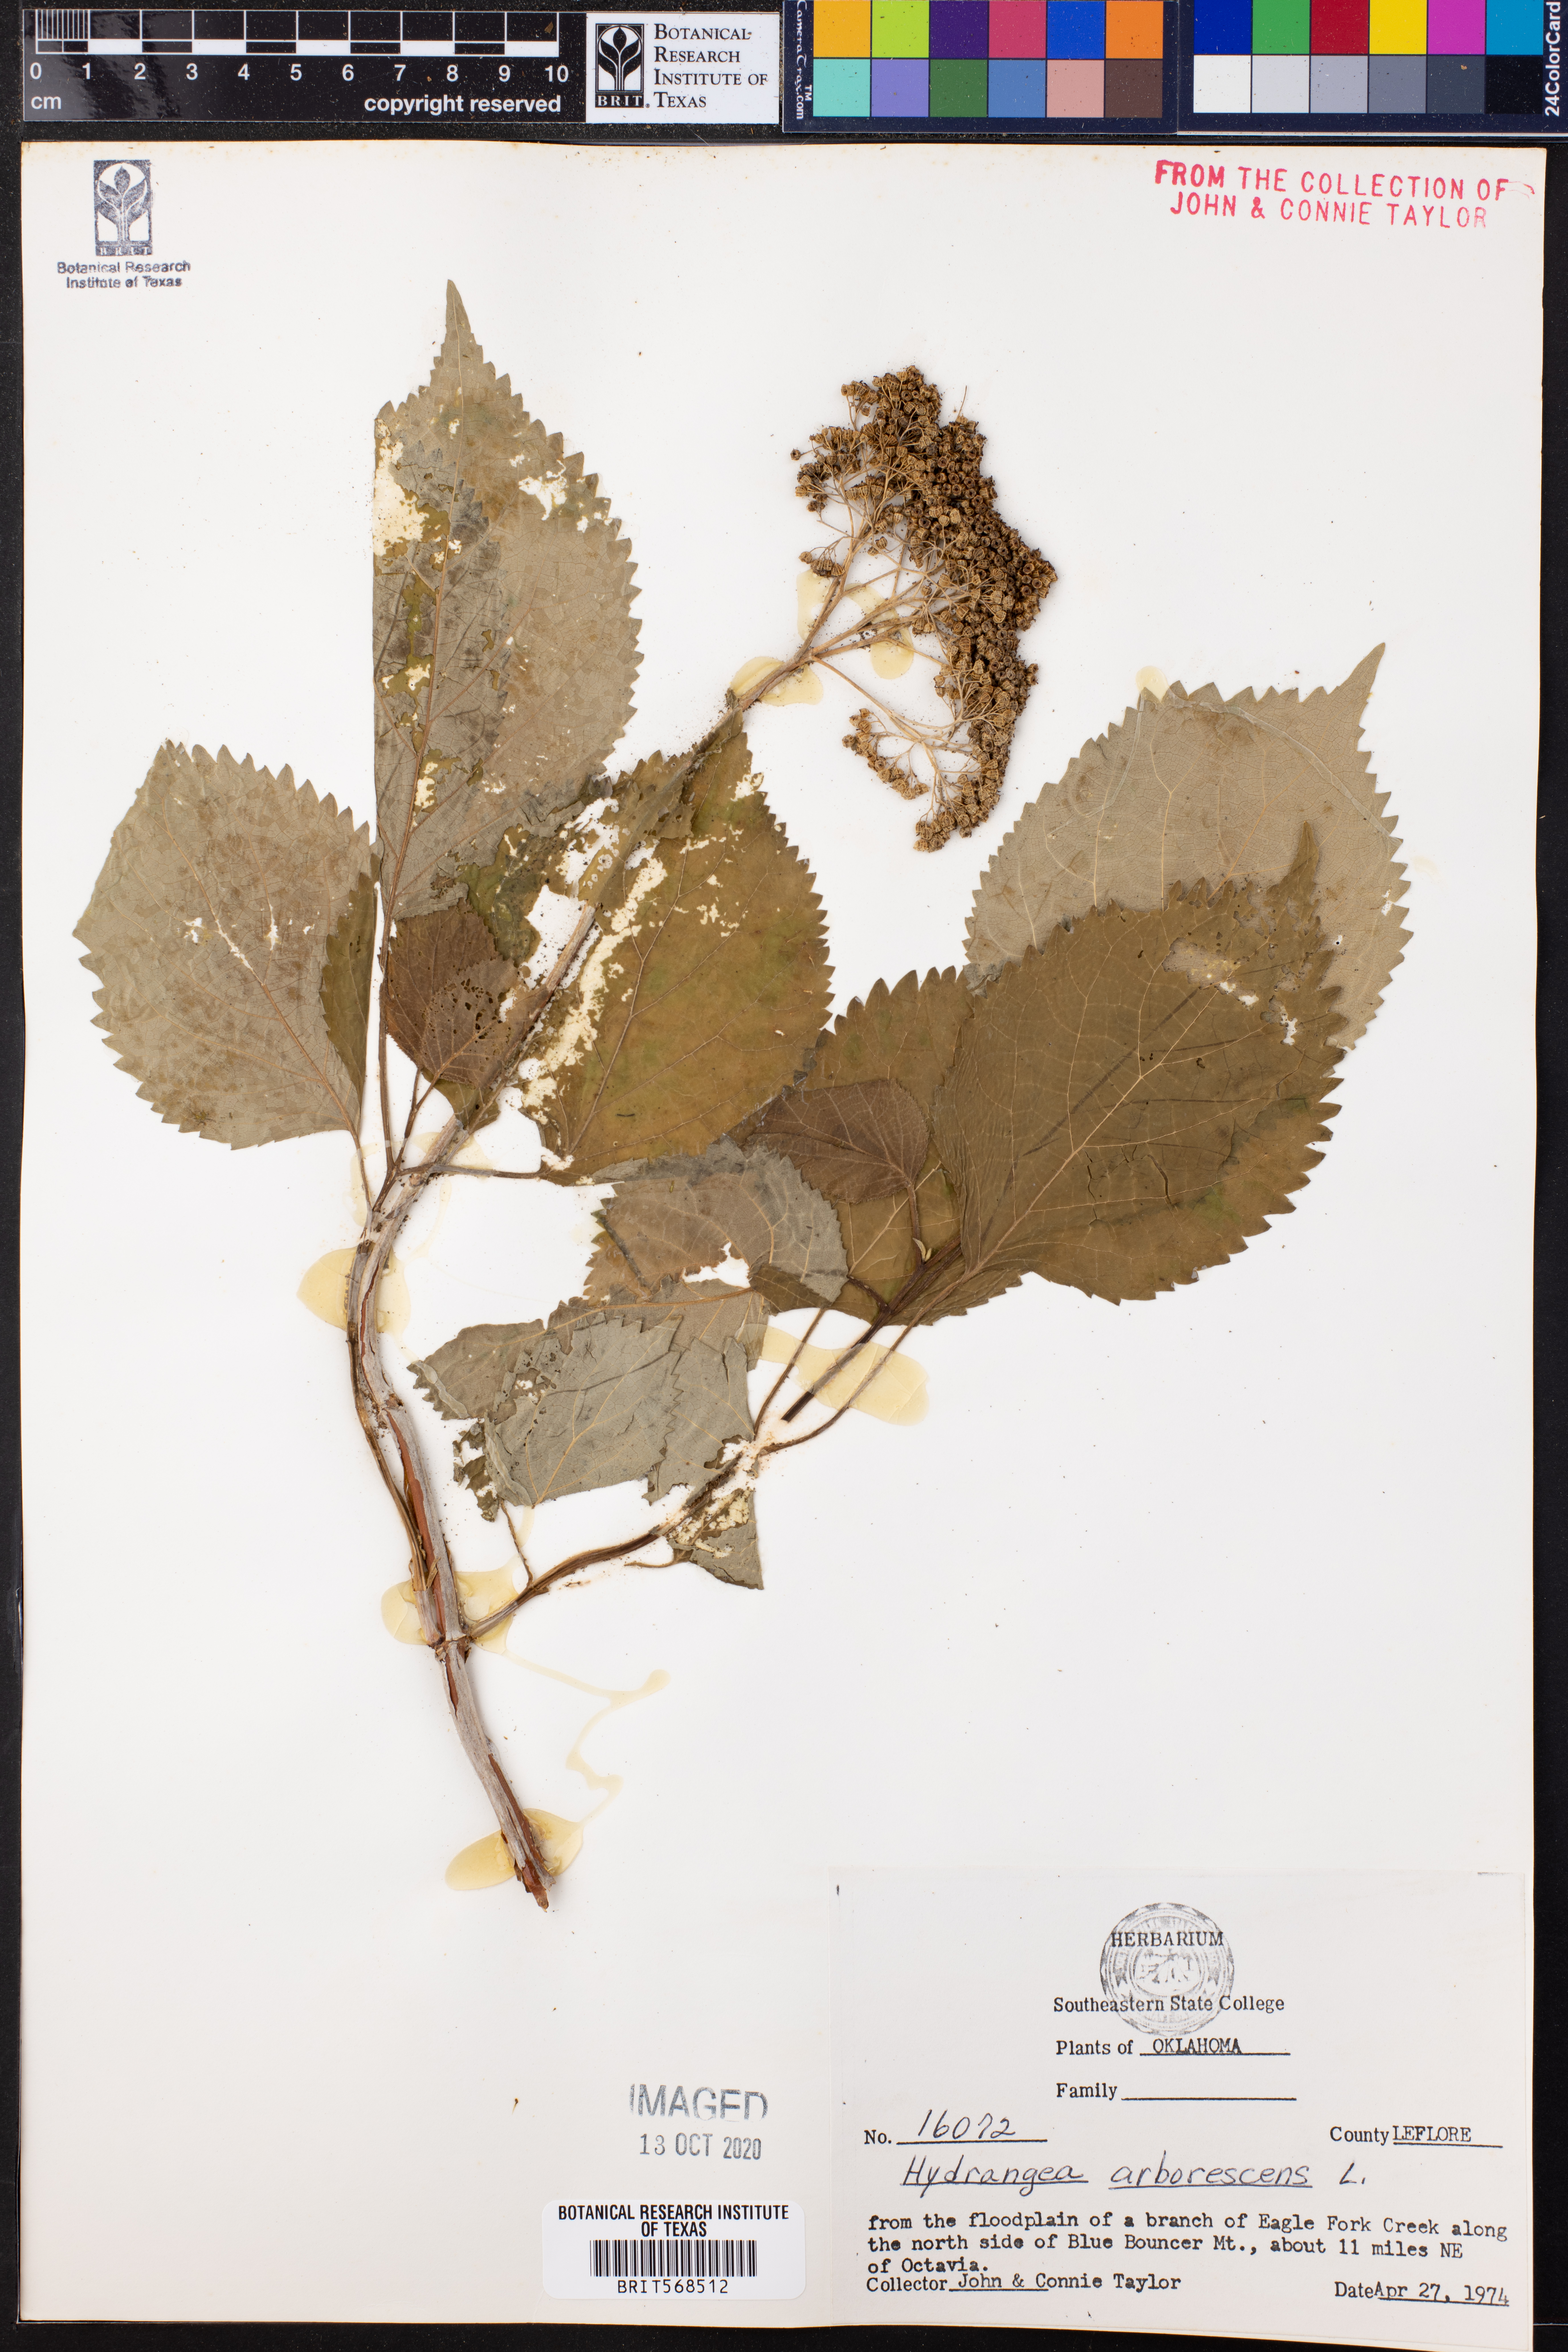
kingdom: Plantae
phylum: Tracheophyta
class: Magnoliopsida
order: Cornales
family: Hydrangeaceae
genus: Hydrangea
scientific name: Hydrangea arborescens
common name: Sevenbark
